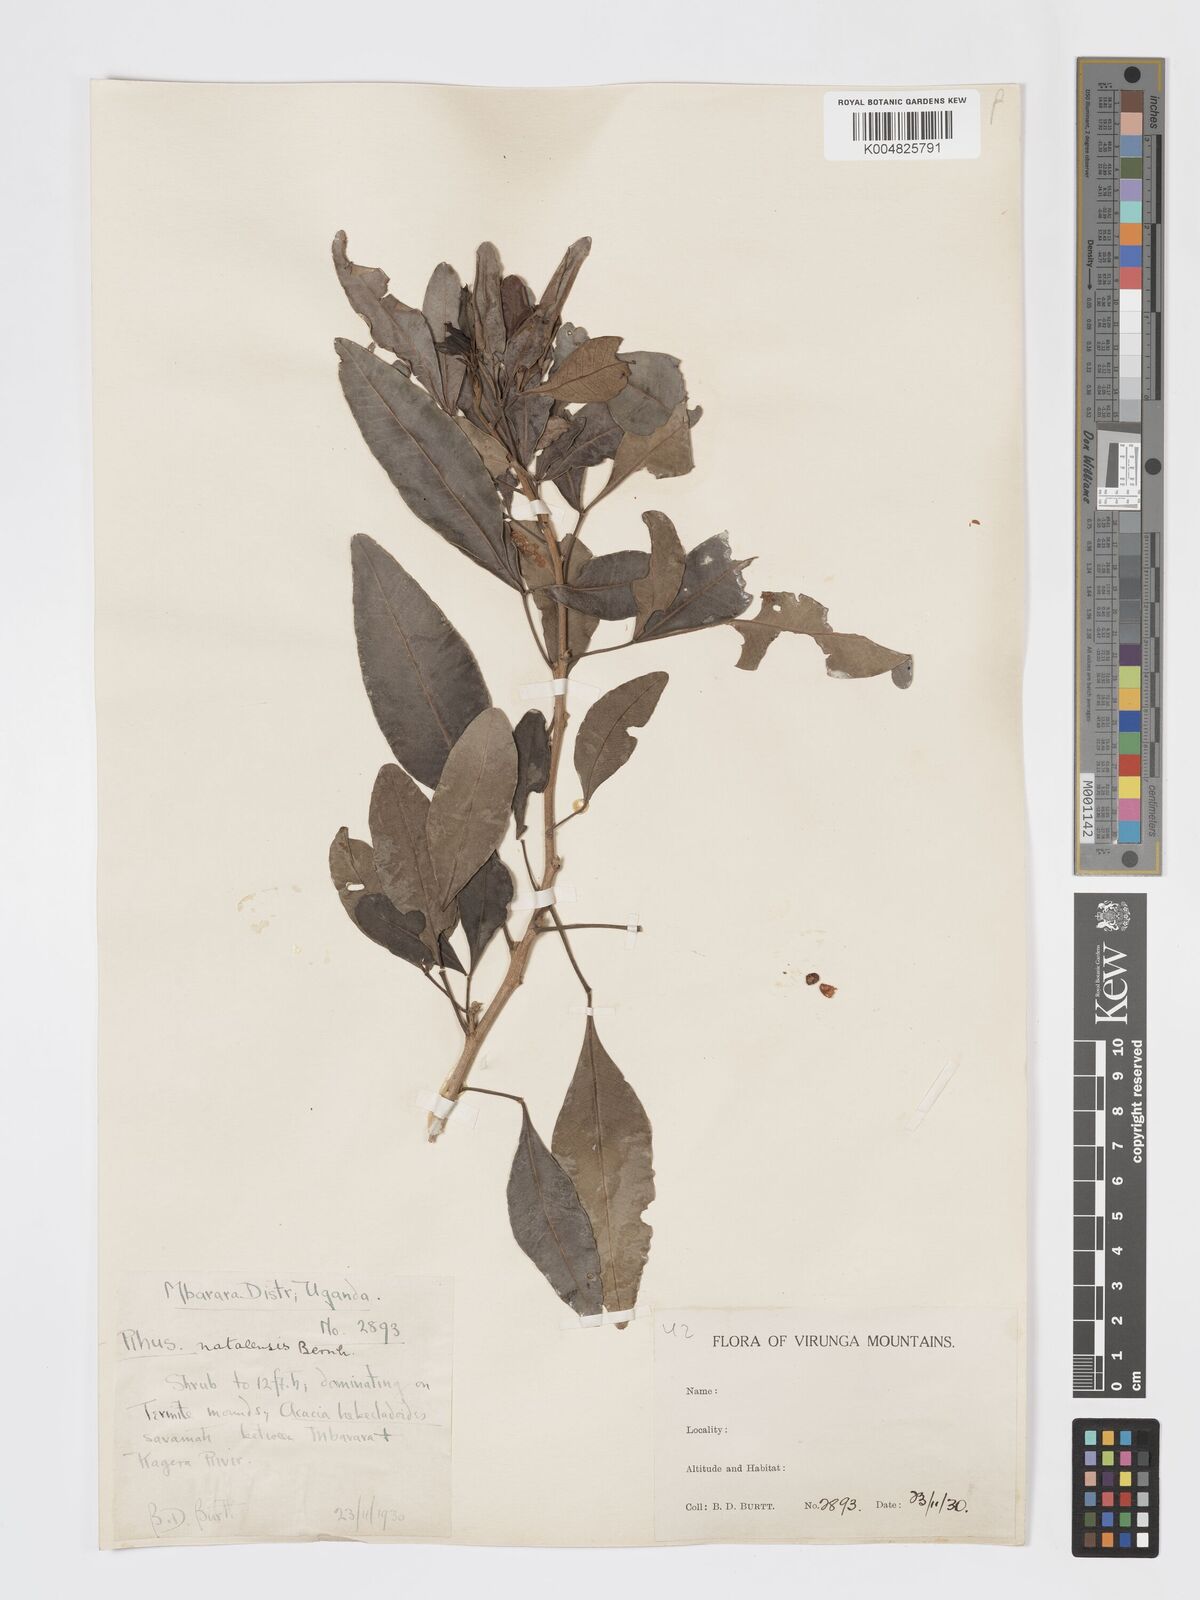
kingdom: Plantae
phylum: Tracheophyta
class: Magnoliopsida
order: Sapindales
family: Anacardiaceae
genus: Searsia
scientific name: Searsia natalensis
